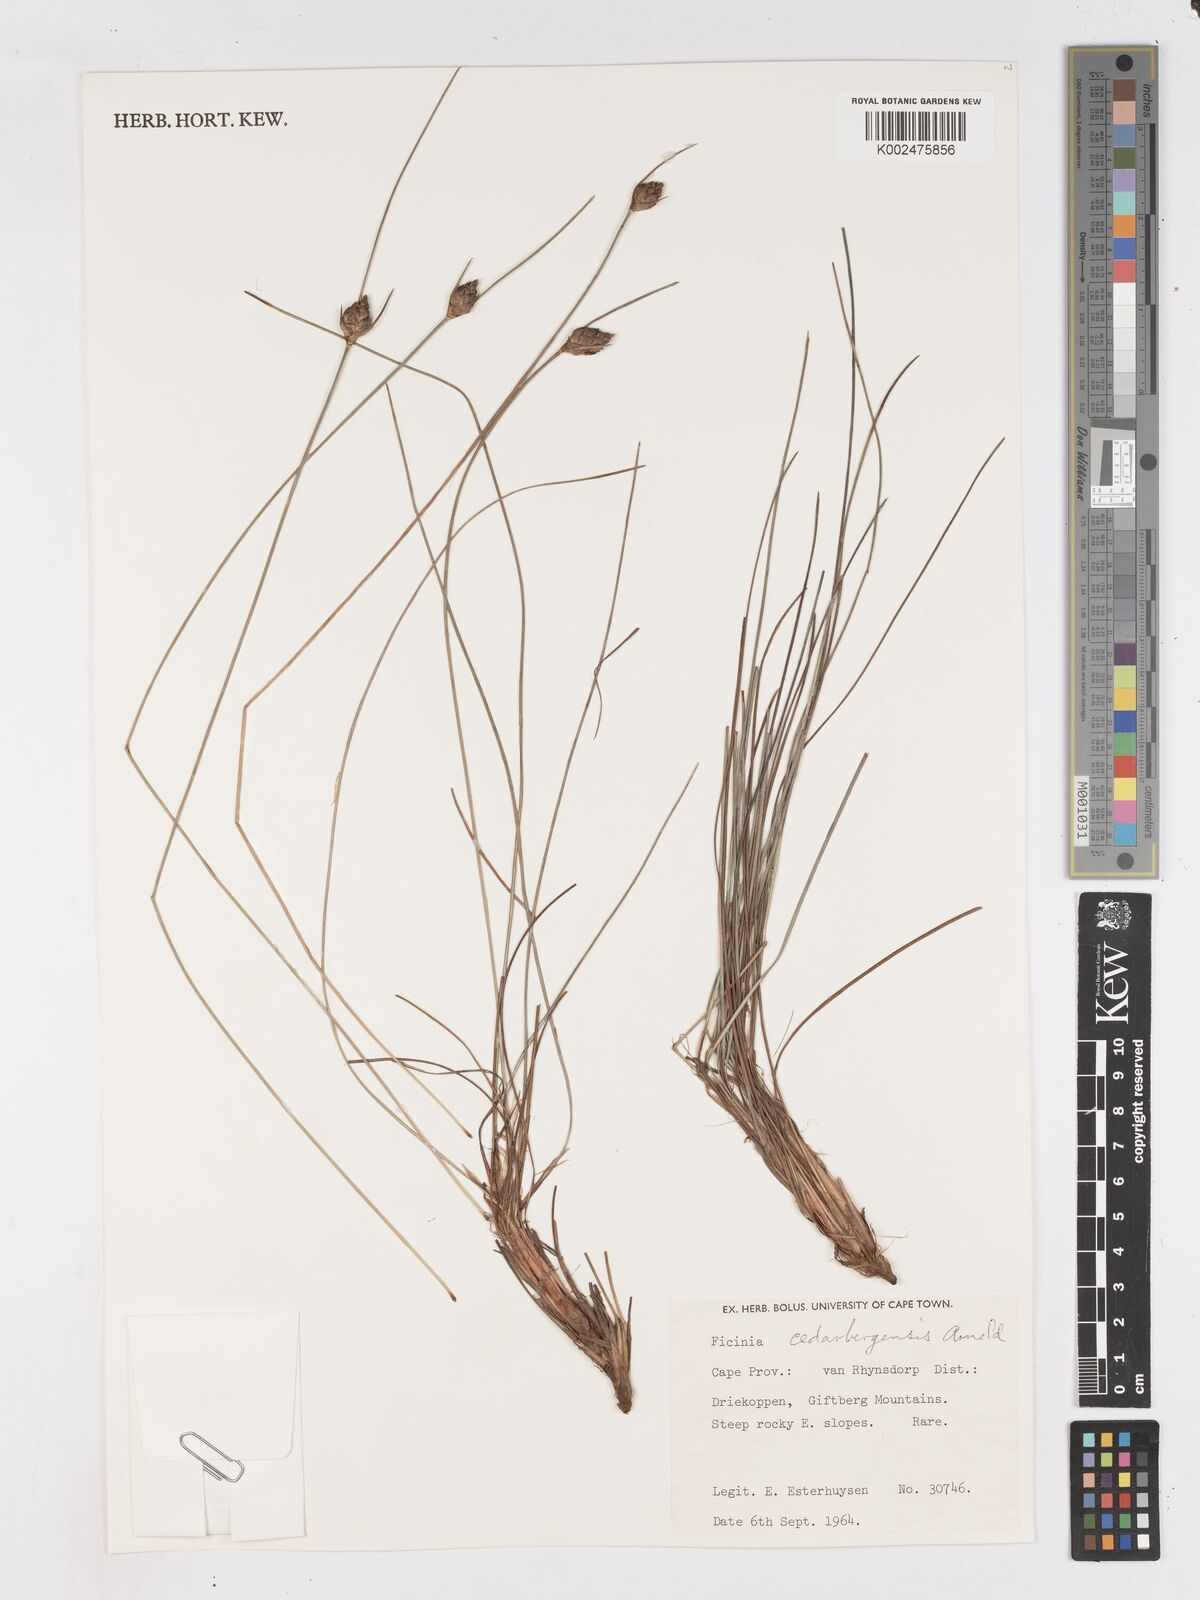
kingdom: Plantae
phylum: Tracheophyta
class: Liliopsida
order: Poales
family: Cyperaceae
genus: Ficinia
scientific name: Ficinia cedarbergensis
